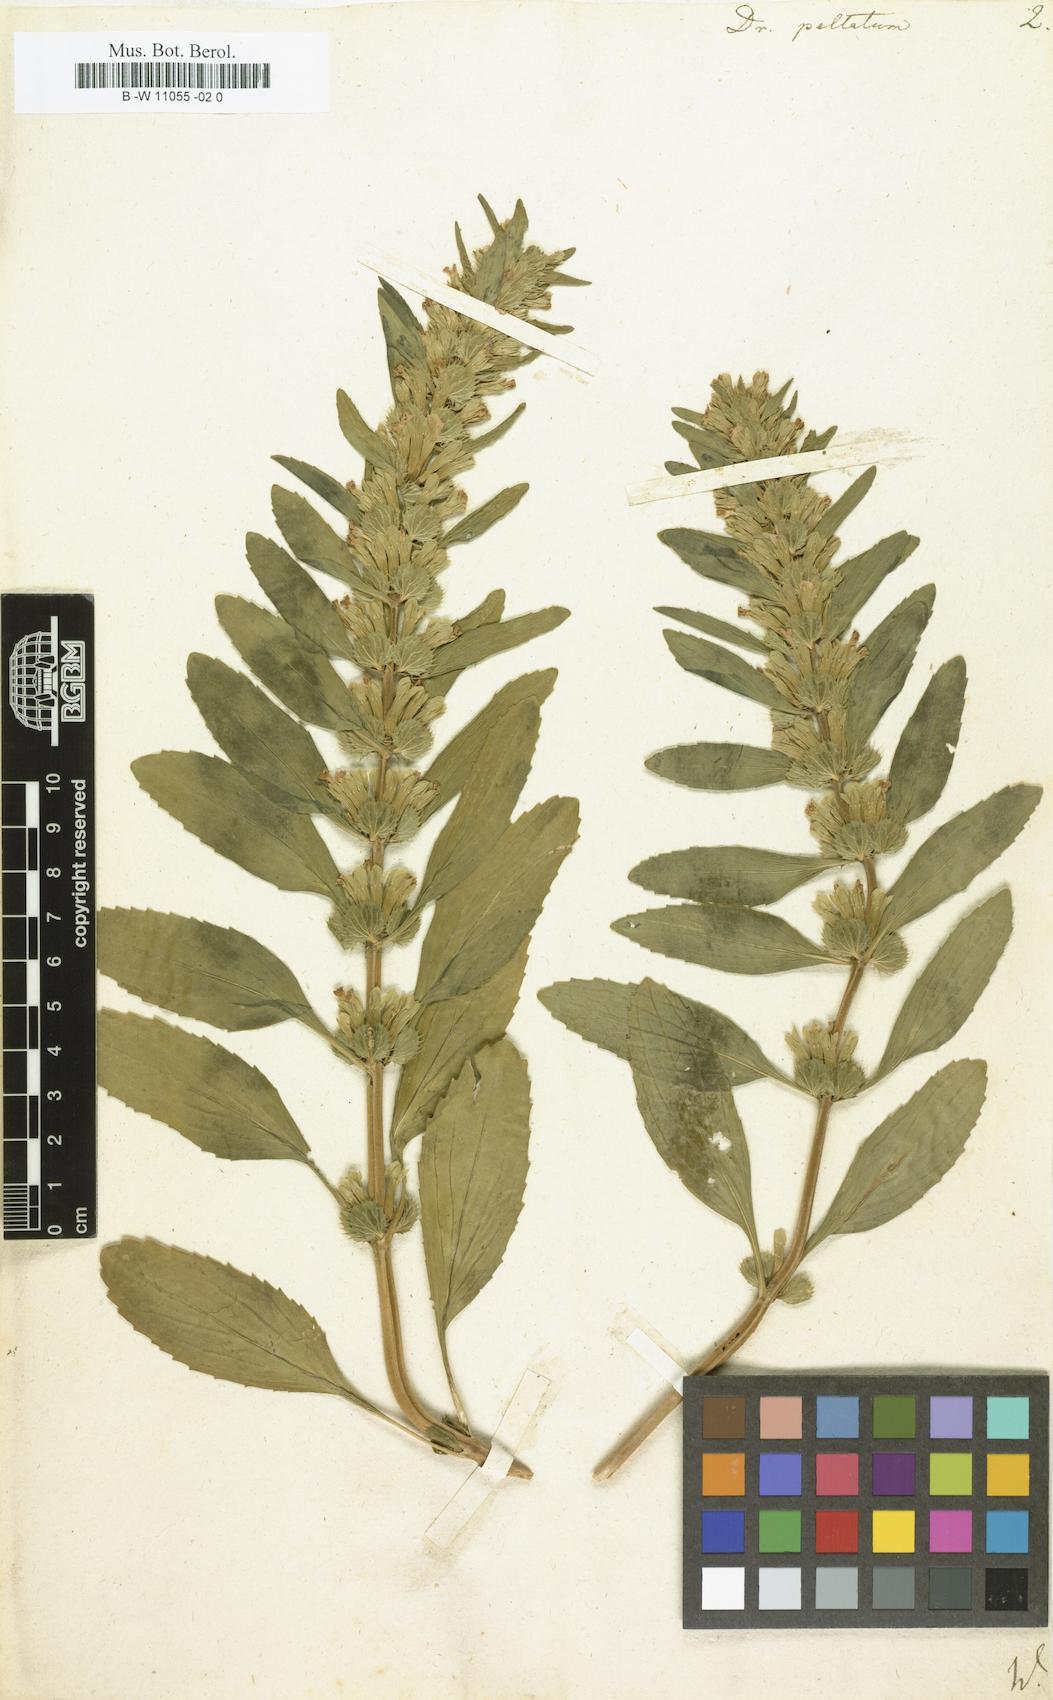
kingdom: Plantae
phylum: Tracheophyta
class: Magnoliopsida
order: Lamiales
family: Lamiaceae
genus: Lallemantia
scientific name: Lallemantia peltata
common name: Lion's heart
